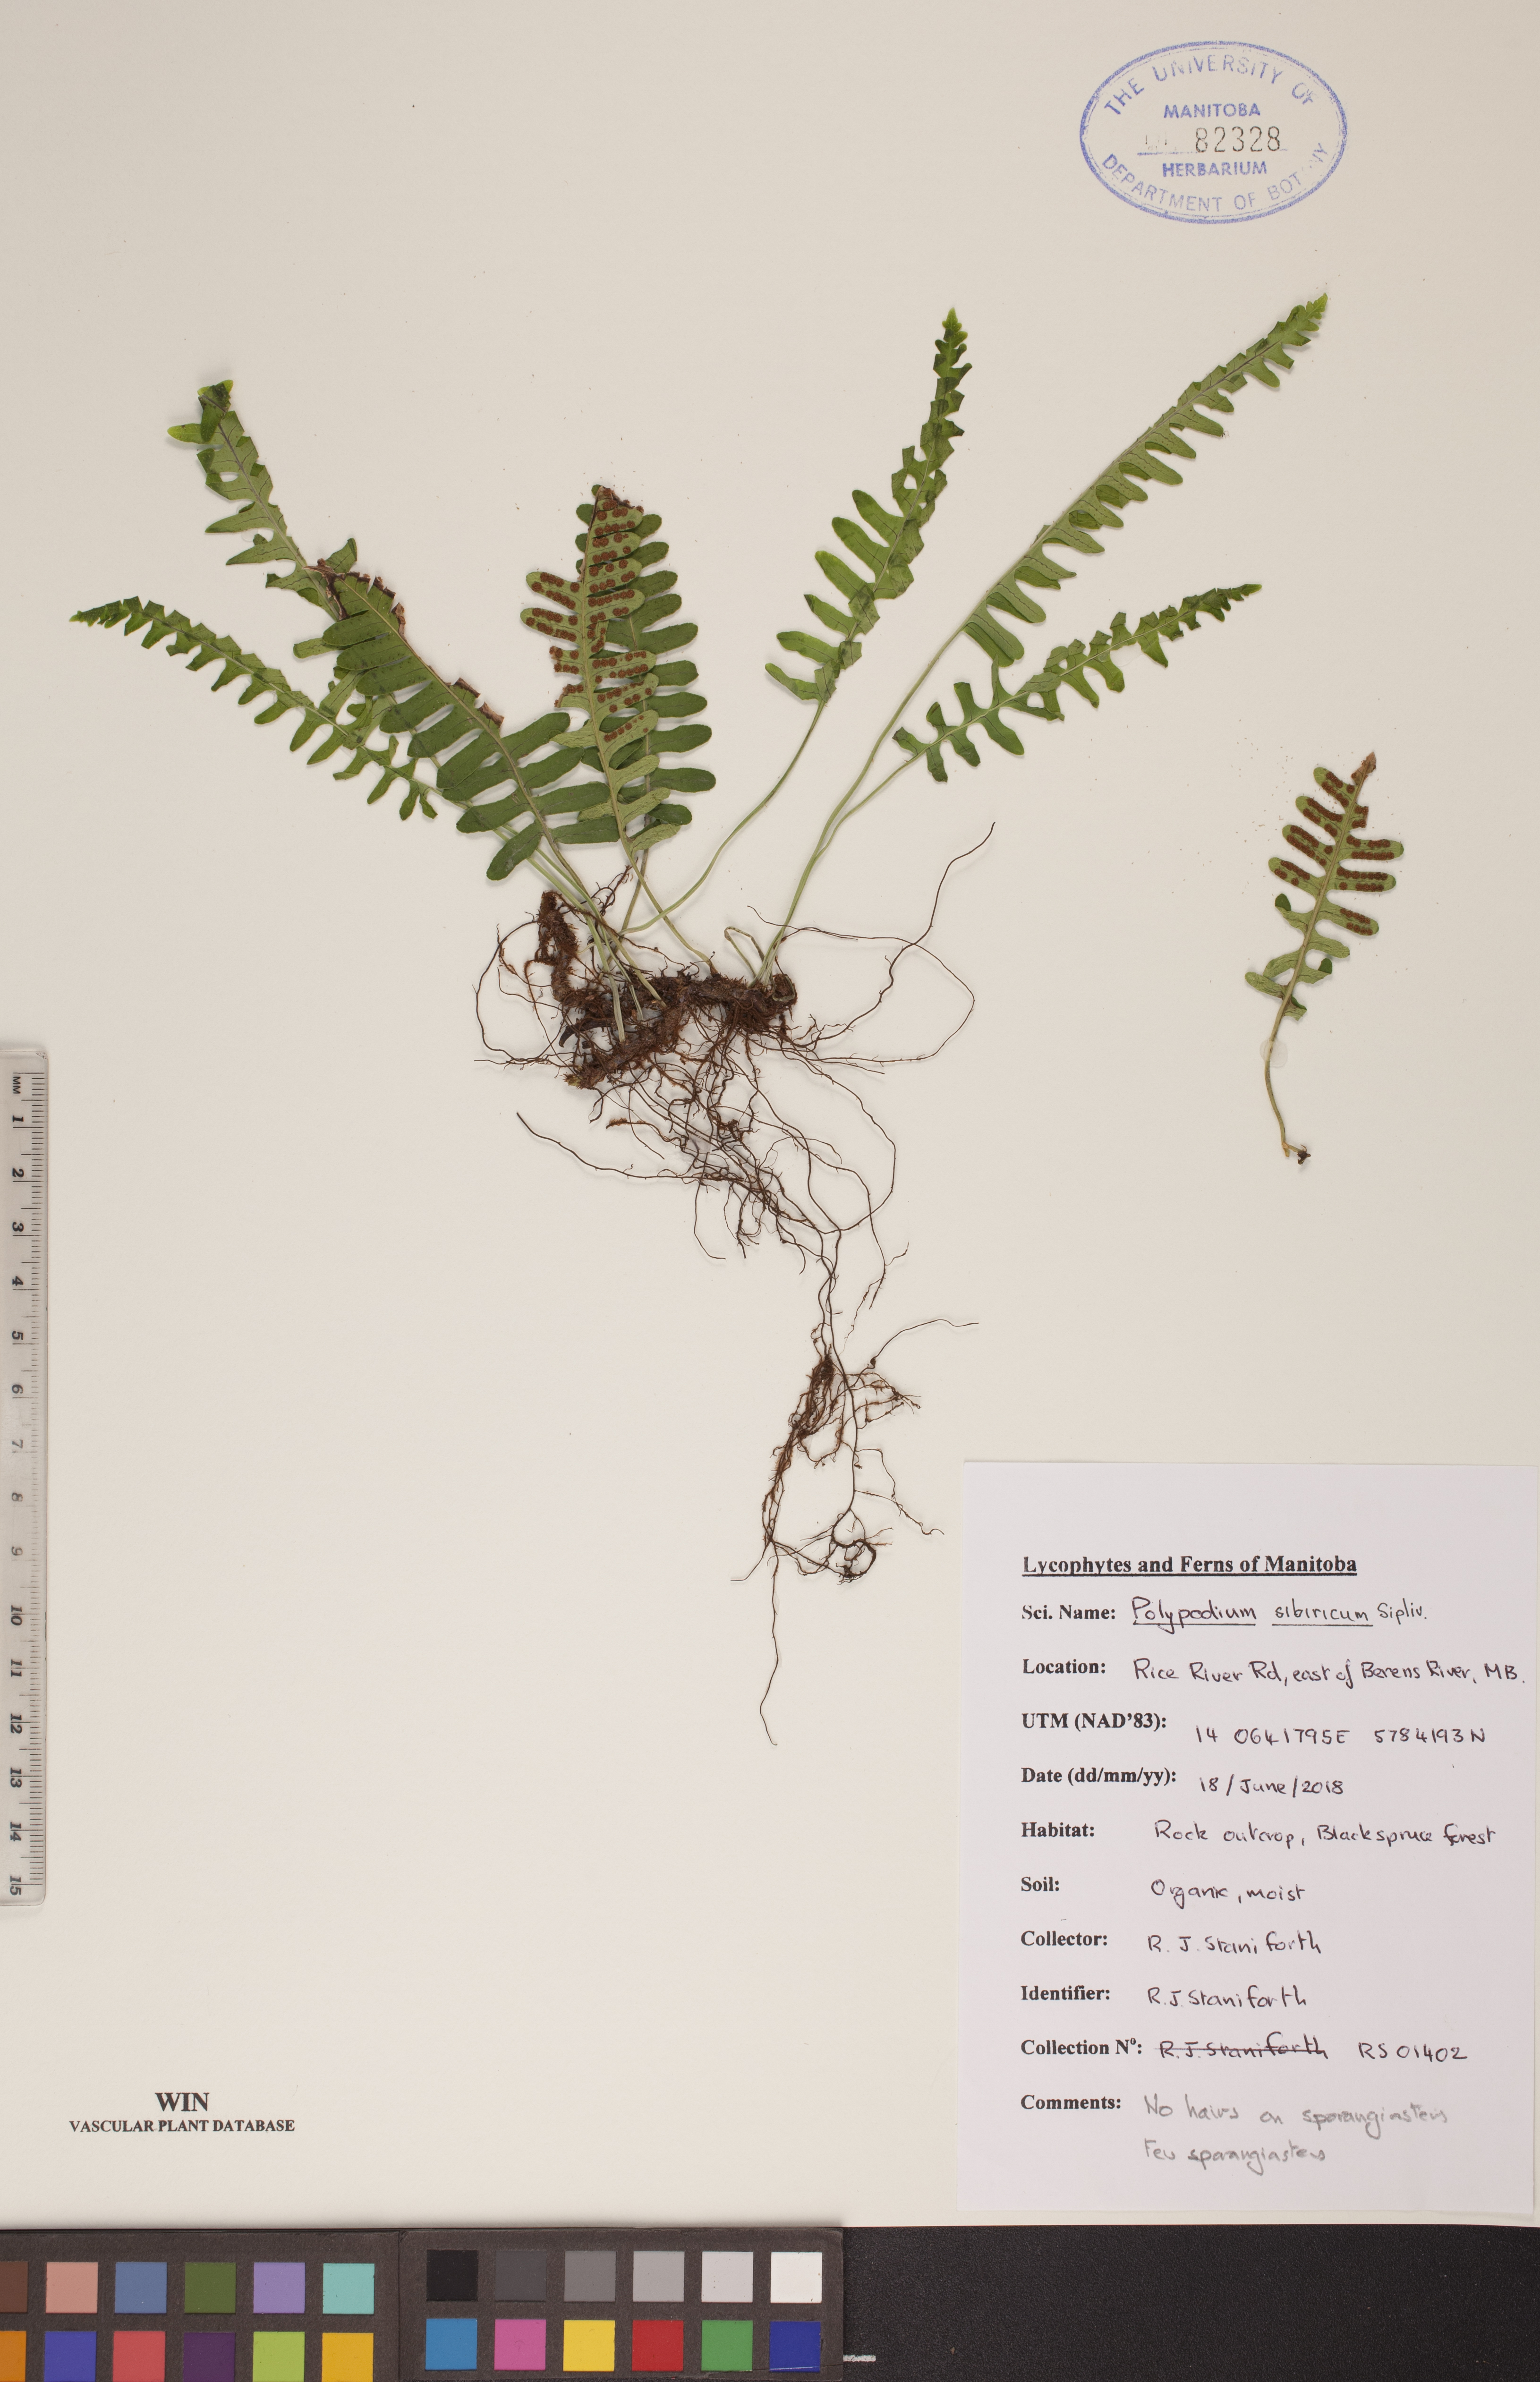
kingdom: Plantae
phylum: Tracheophyta
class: Polypodiopsida
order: Polypodiales
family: Polypodiaceae
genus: Polypodium
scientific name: Polypodium sibiricum
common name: Siberian polypody
